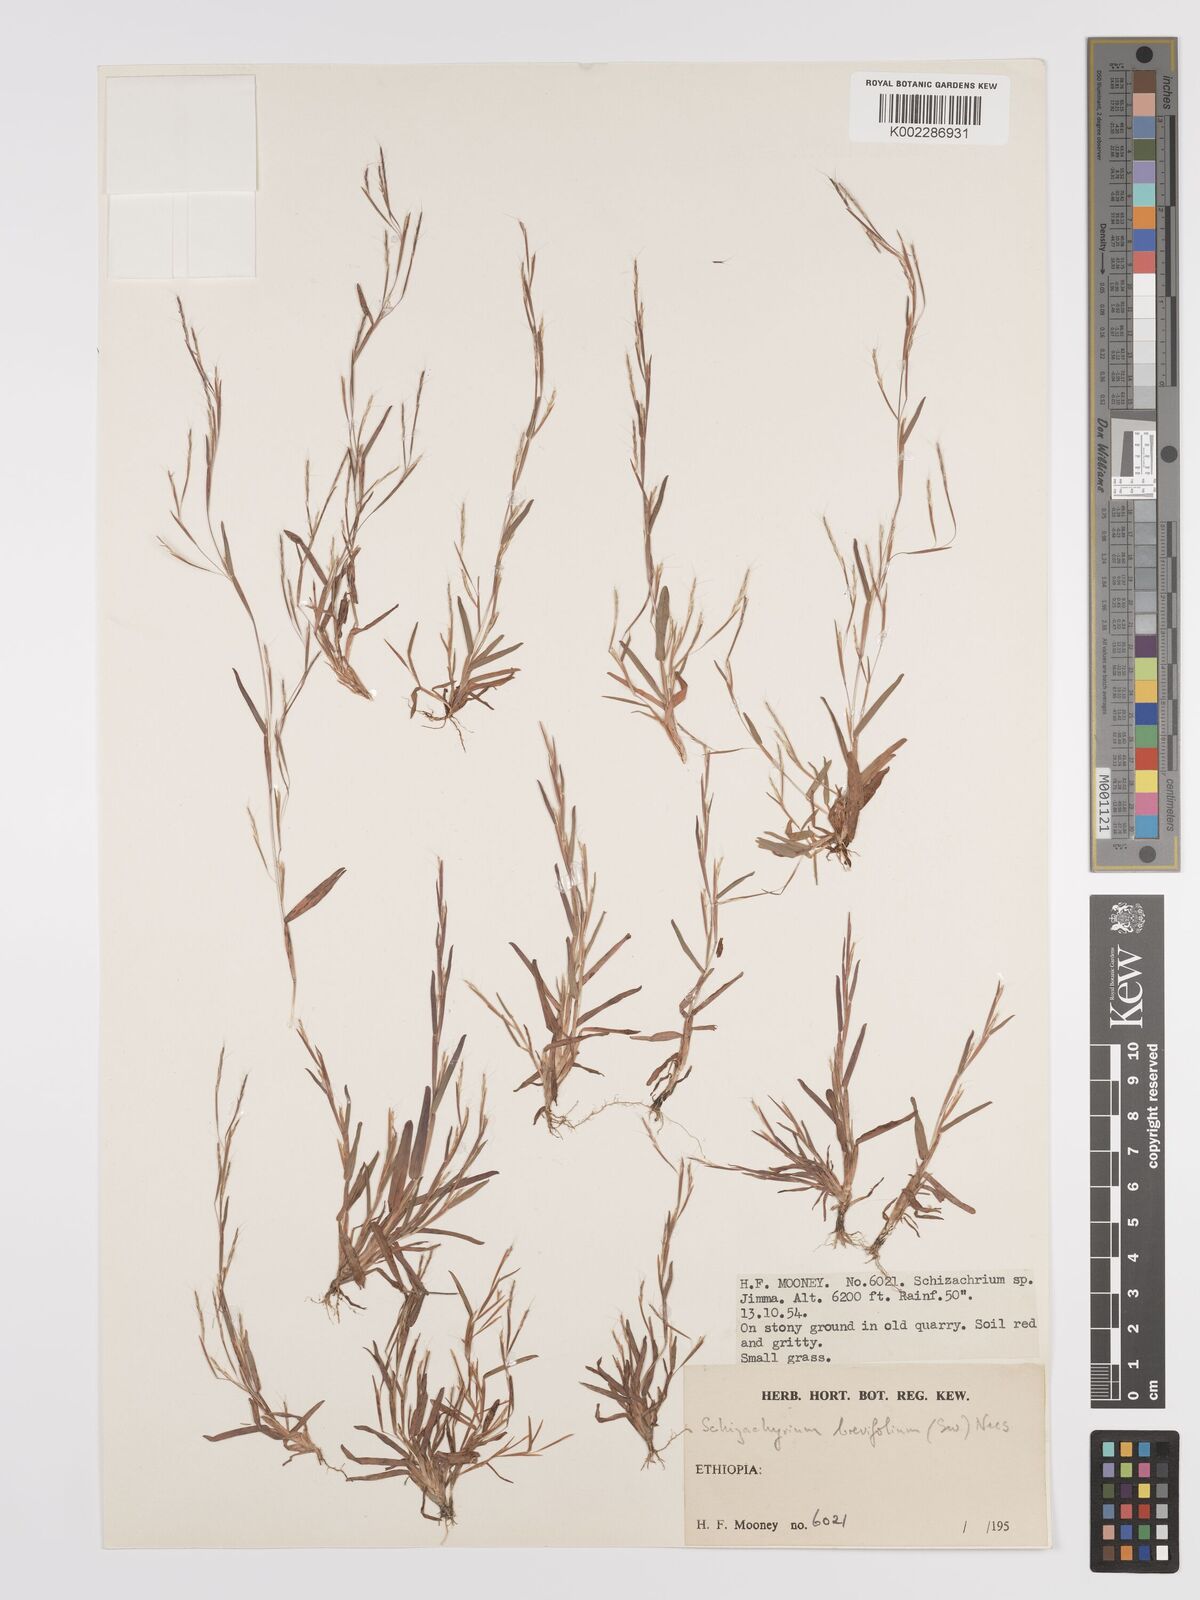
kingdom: Plantae
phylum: Tracheophyta
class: Liliopsida
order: Poales
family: Poaceae
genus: Schizachyrium
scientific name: Schizachyrium brevifolium
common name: Serillo dulce
